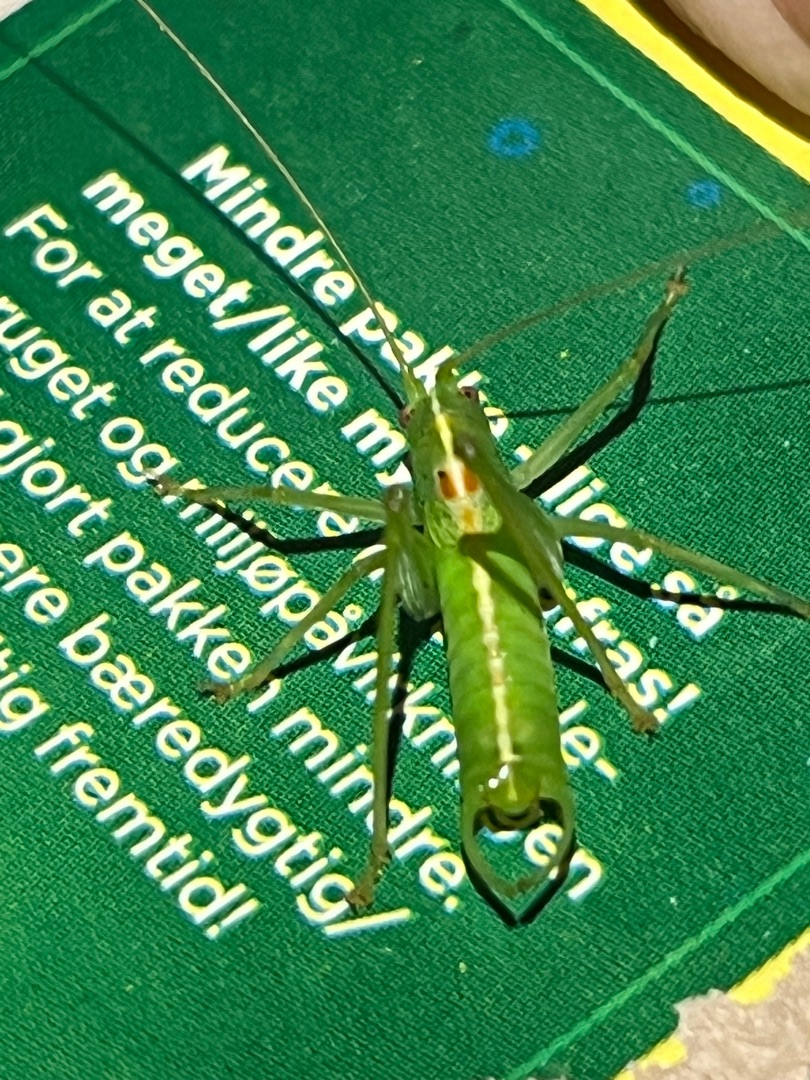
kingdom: Animalia
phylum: Arthropoda
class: Insecta
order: Orthoptera
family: Tettigoniidae
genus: Meconema
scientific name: Meconema meridionale
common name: Kortvinget egegræshoppe
